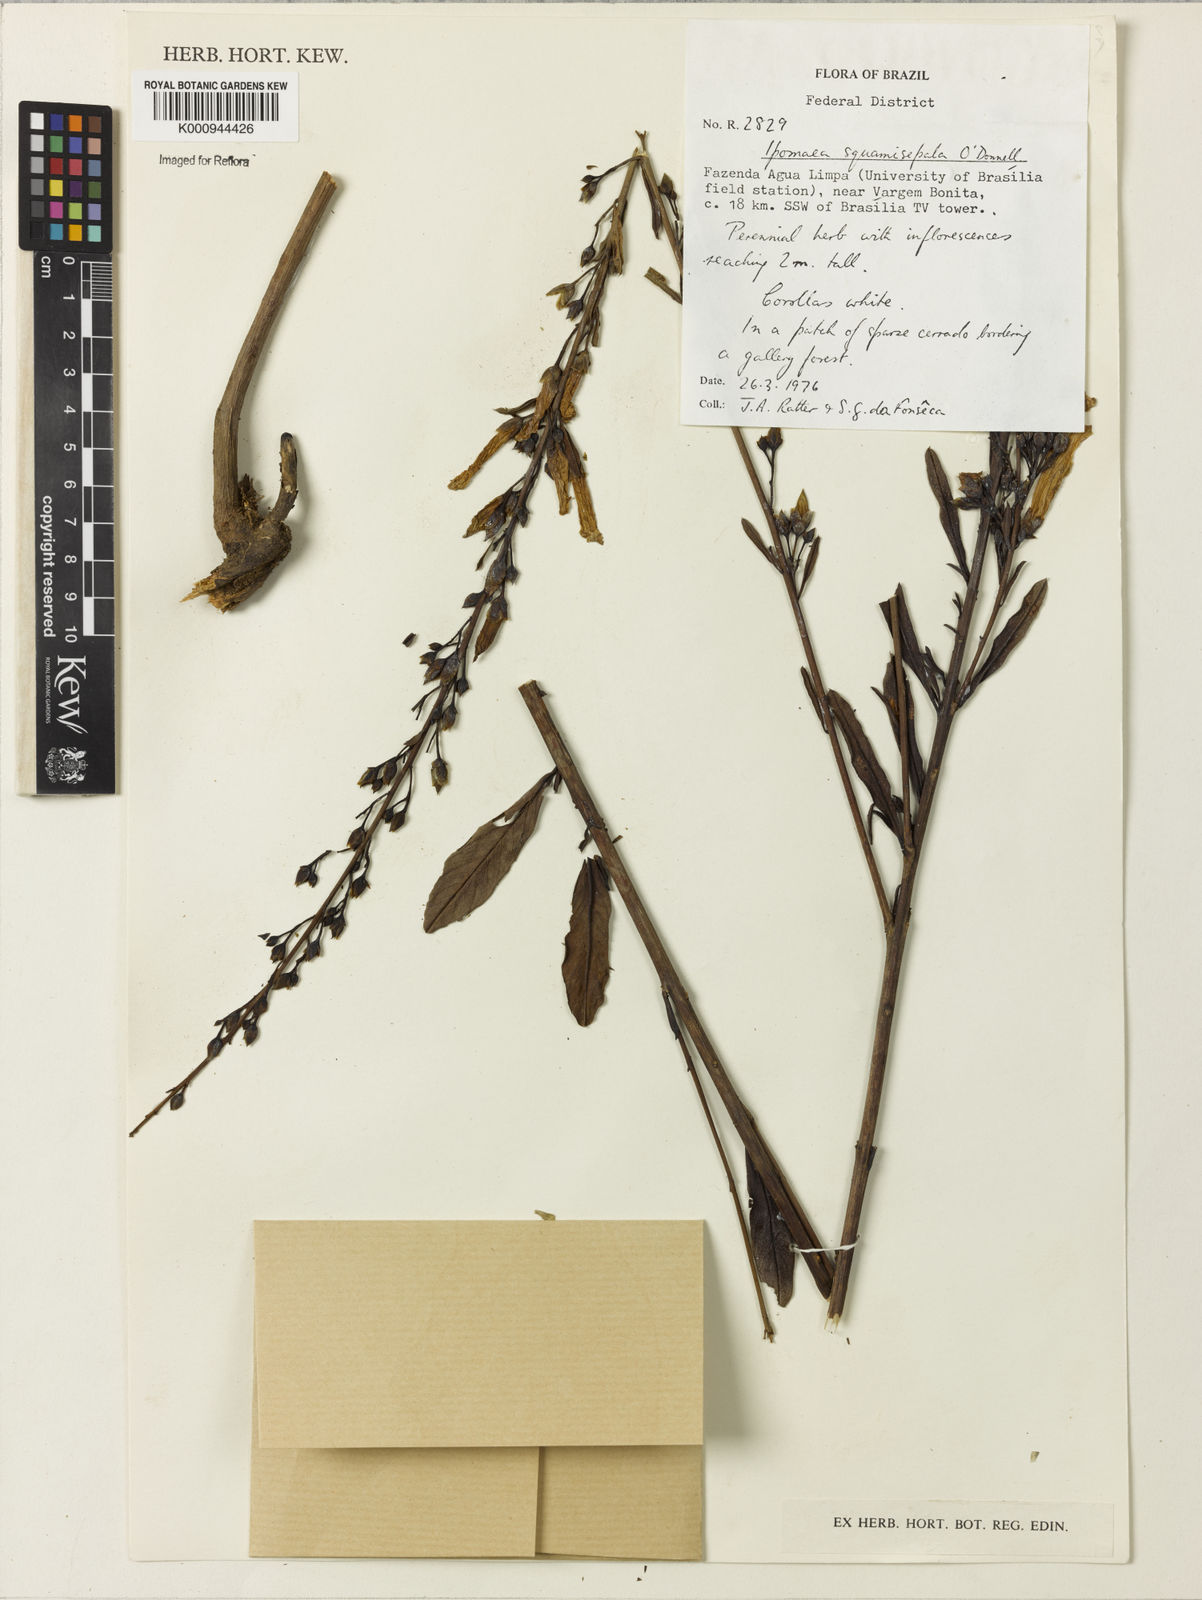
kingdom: Plantae
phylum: Tracheophyta
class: Magnoliopsida
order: Solanales
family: Convolvulaceae
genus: Ipomoea
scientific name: Ipomoea
